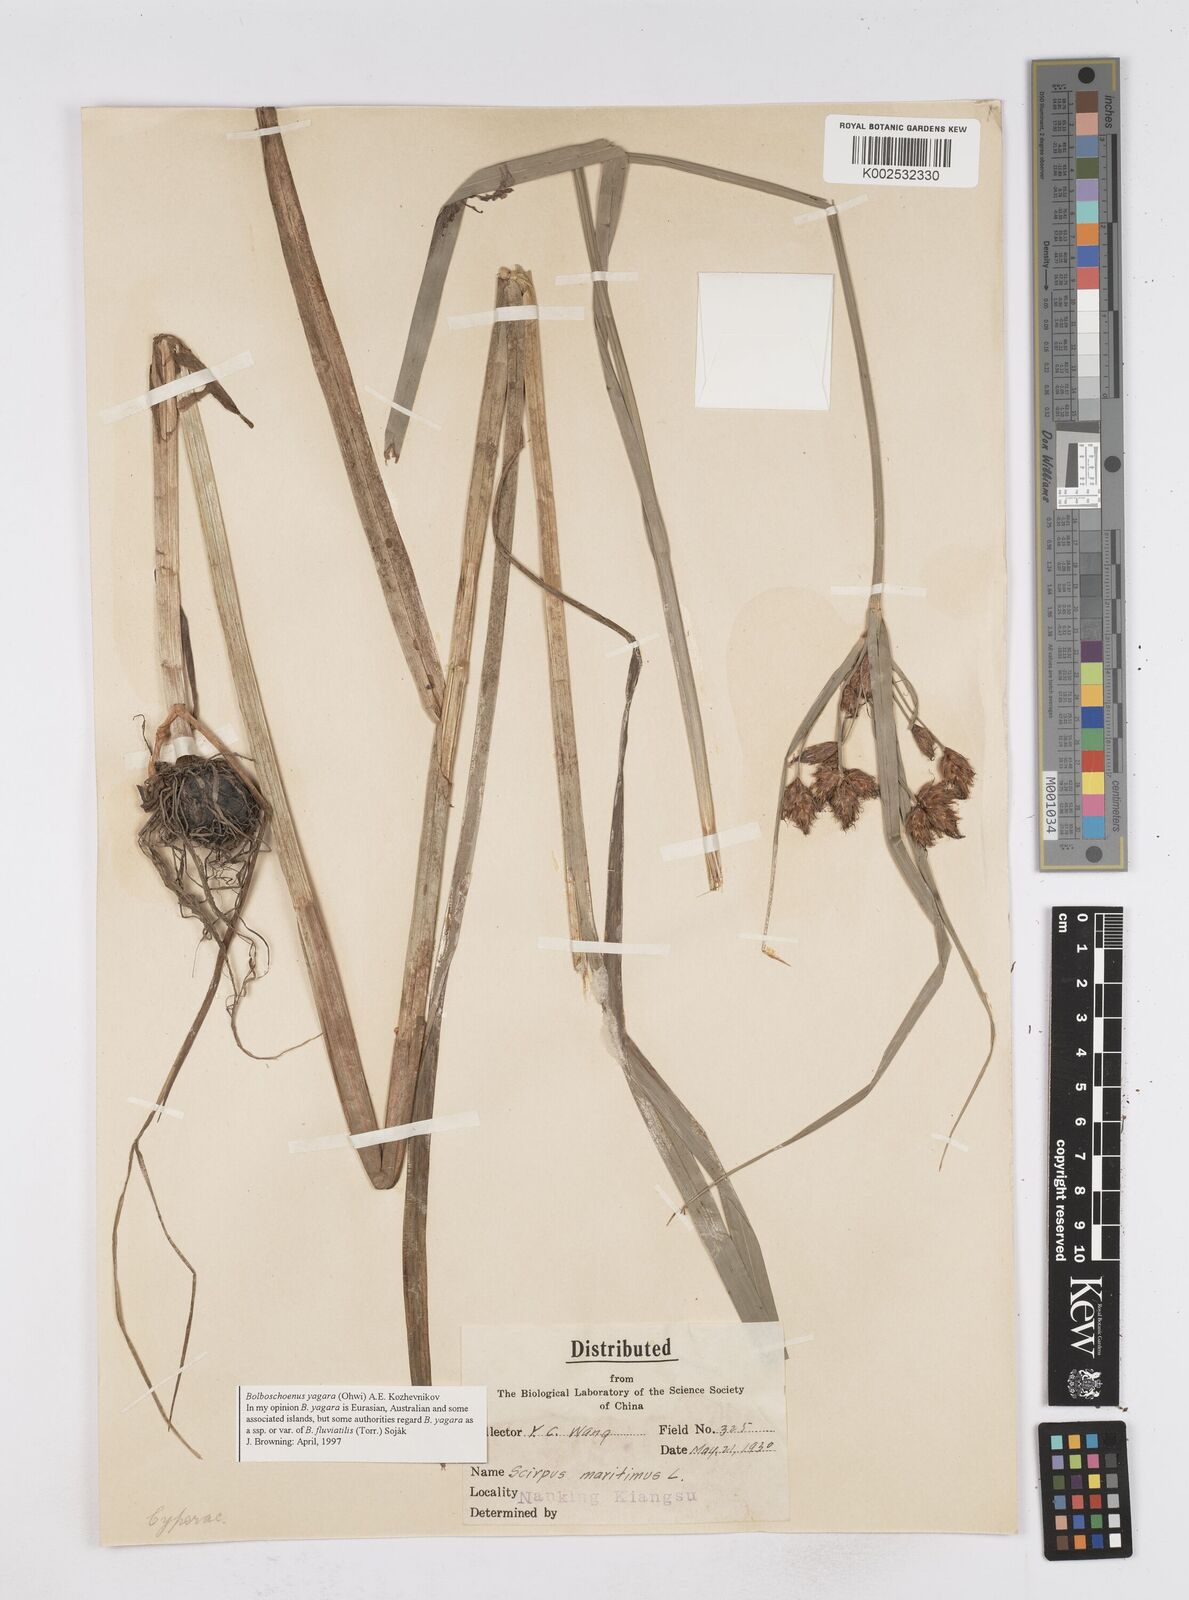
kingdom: Plantae
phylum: Tracheophyta
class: Liliopsida
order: Poales
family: Cyperaceae
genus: Bolboschoenus
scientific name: Bolboschoenus maritimus
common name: Sea club-rush
